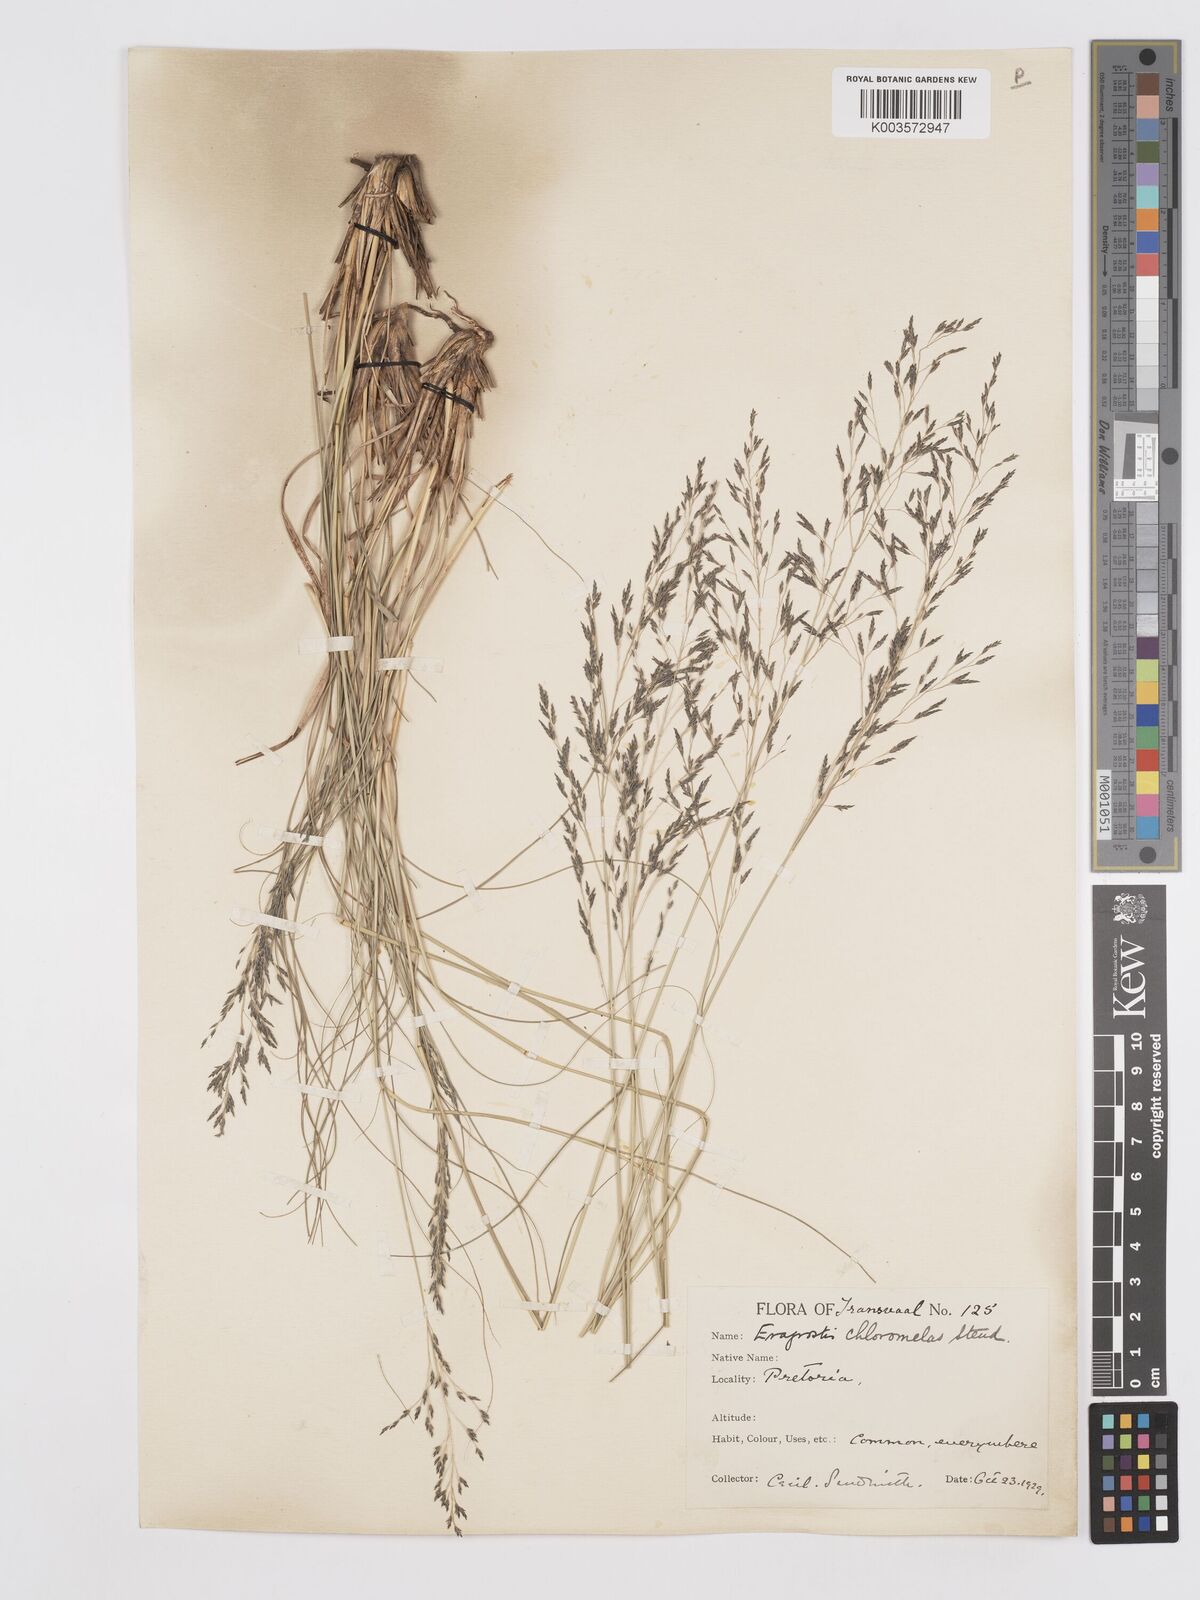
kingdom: Plantae
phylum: Tracheophyta
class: Liliopsida
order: Poales
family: Poaceae
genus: Eragrostis
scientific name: Eragrostis curvula
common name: African love-grass
